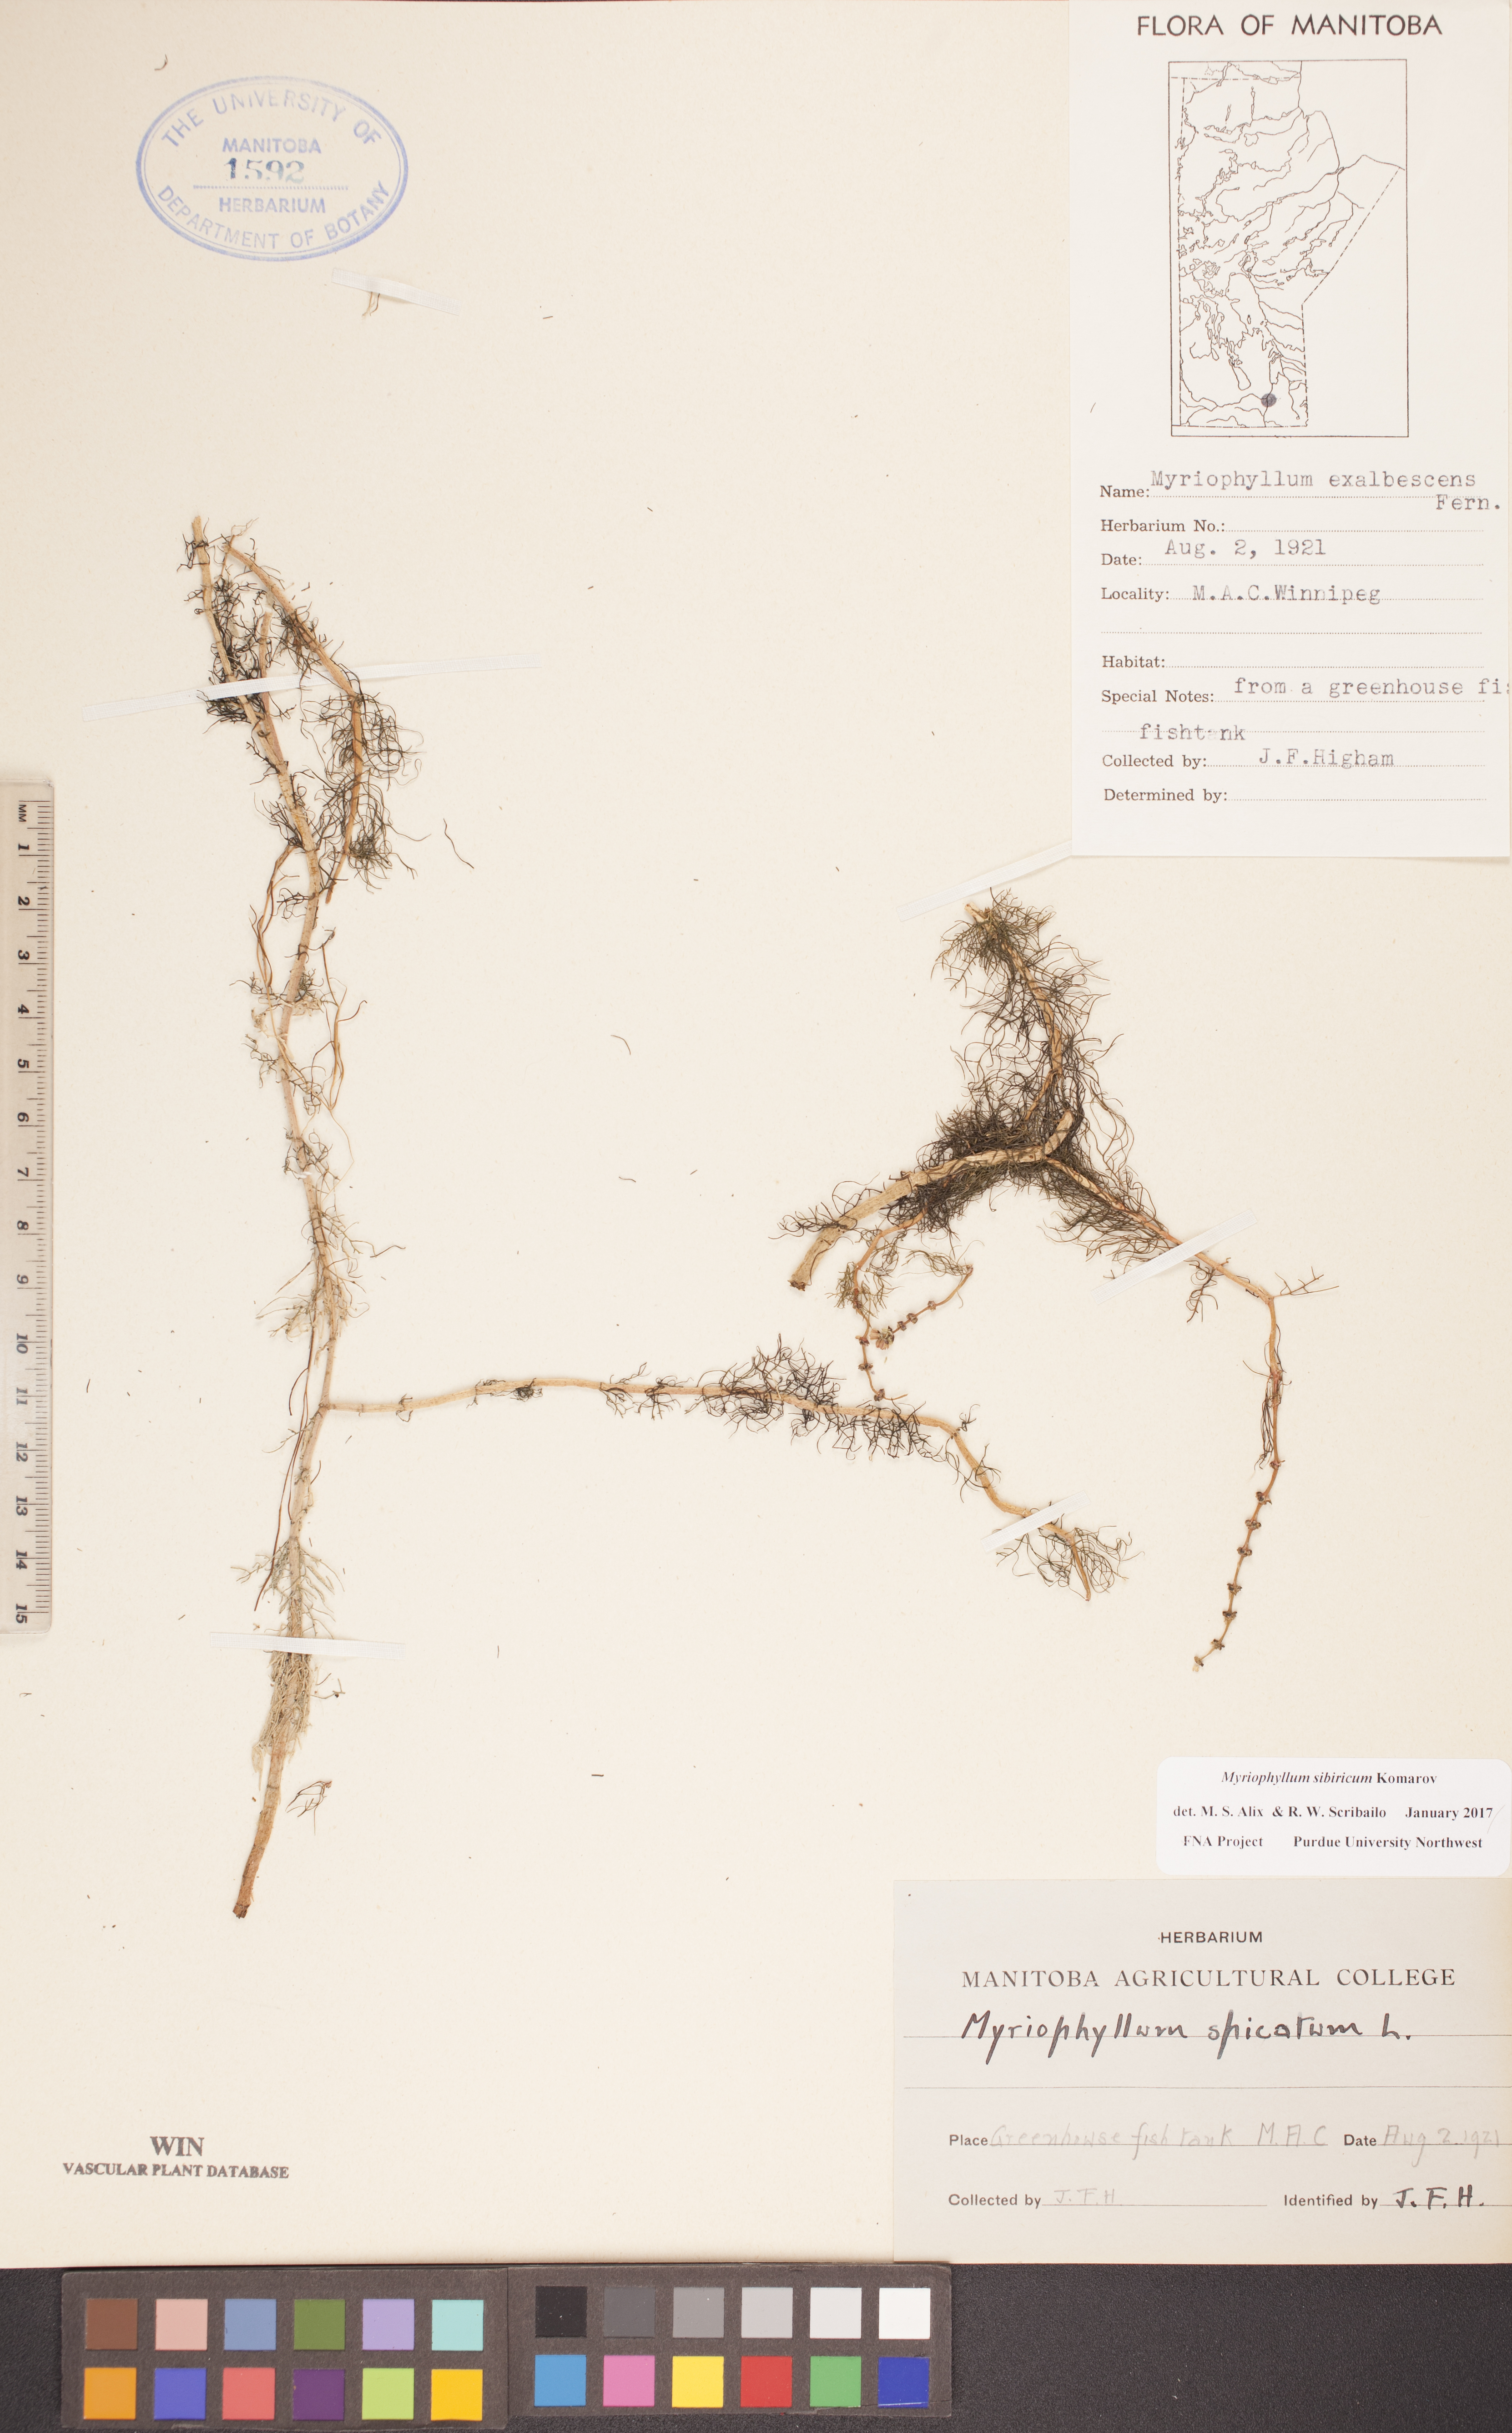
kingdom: Plantae
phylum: Tracheophyta
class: Magnoliopsida
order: Saxifragales
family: Haloragaceae
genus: Myriophyllum
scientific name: Myriophyllum sibiricum
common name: Siberian water-milfoil
